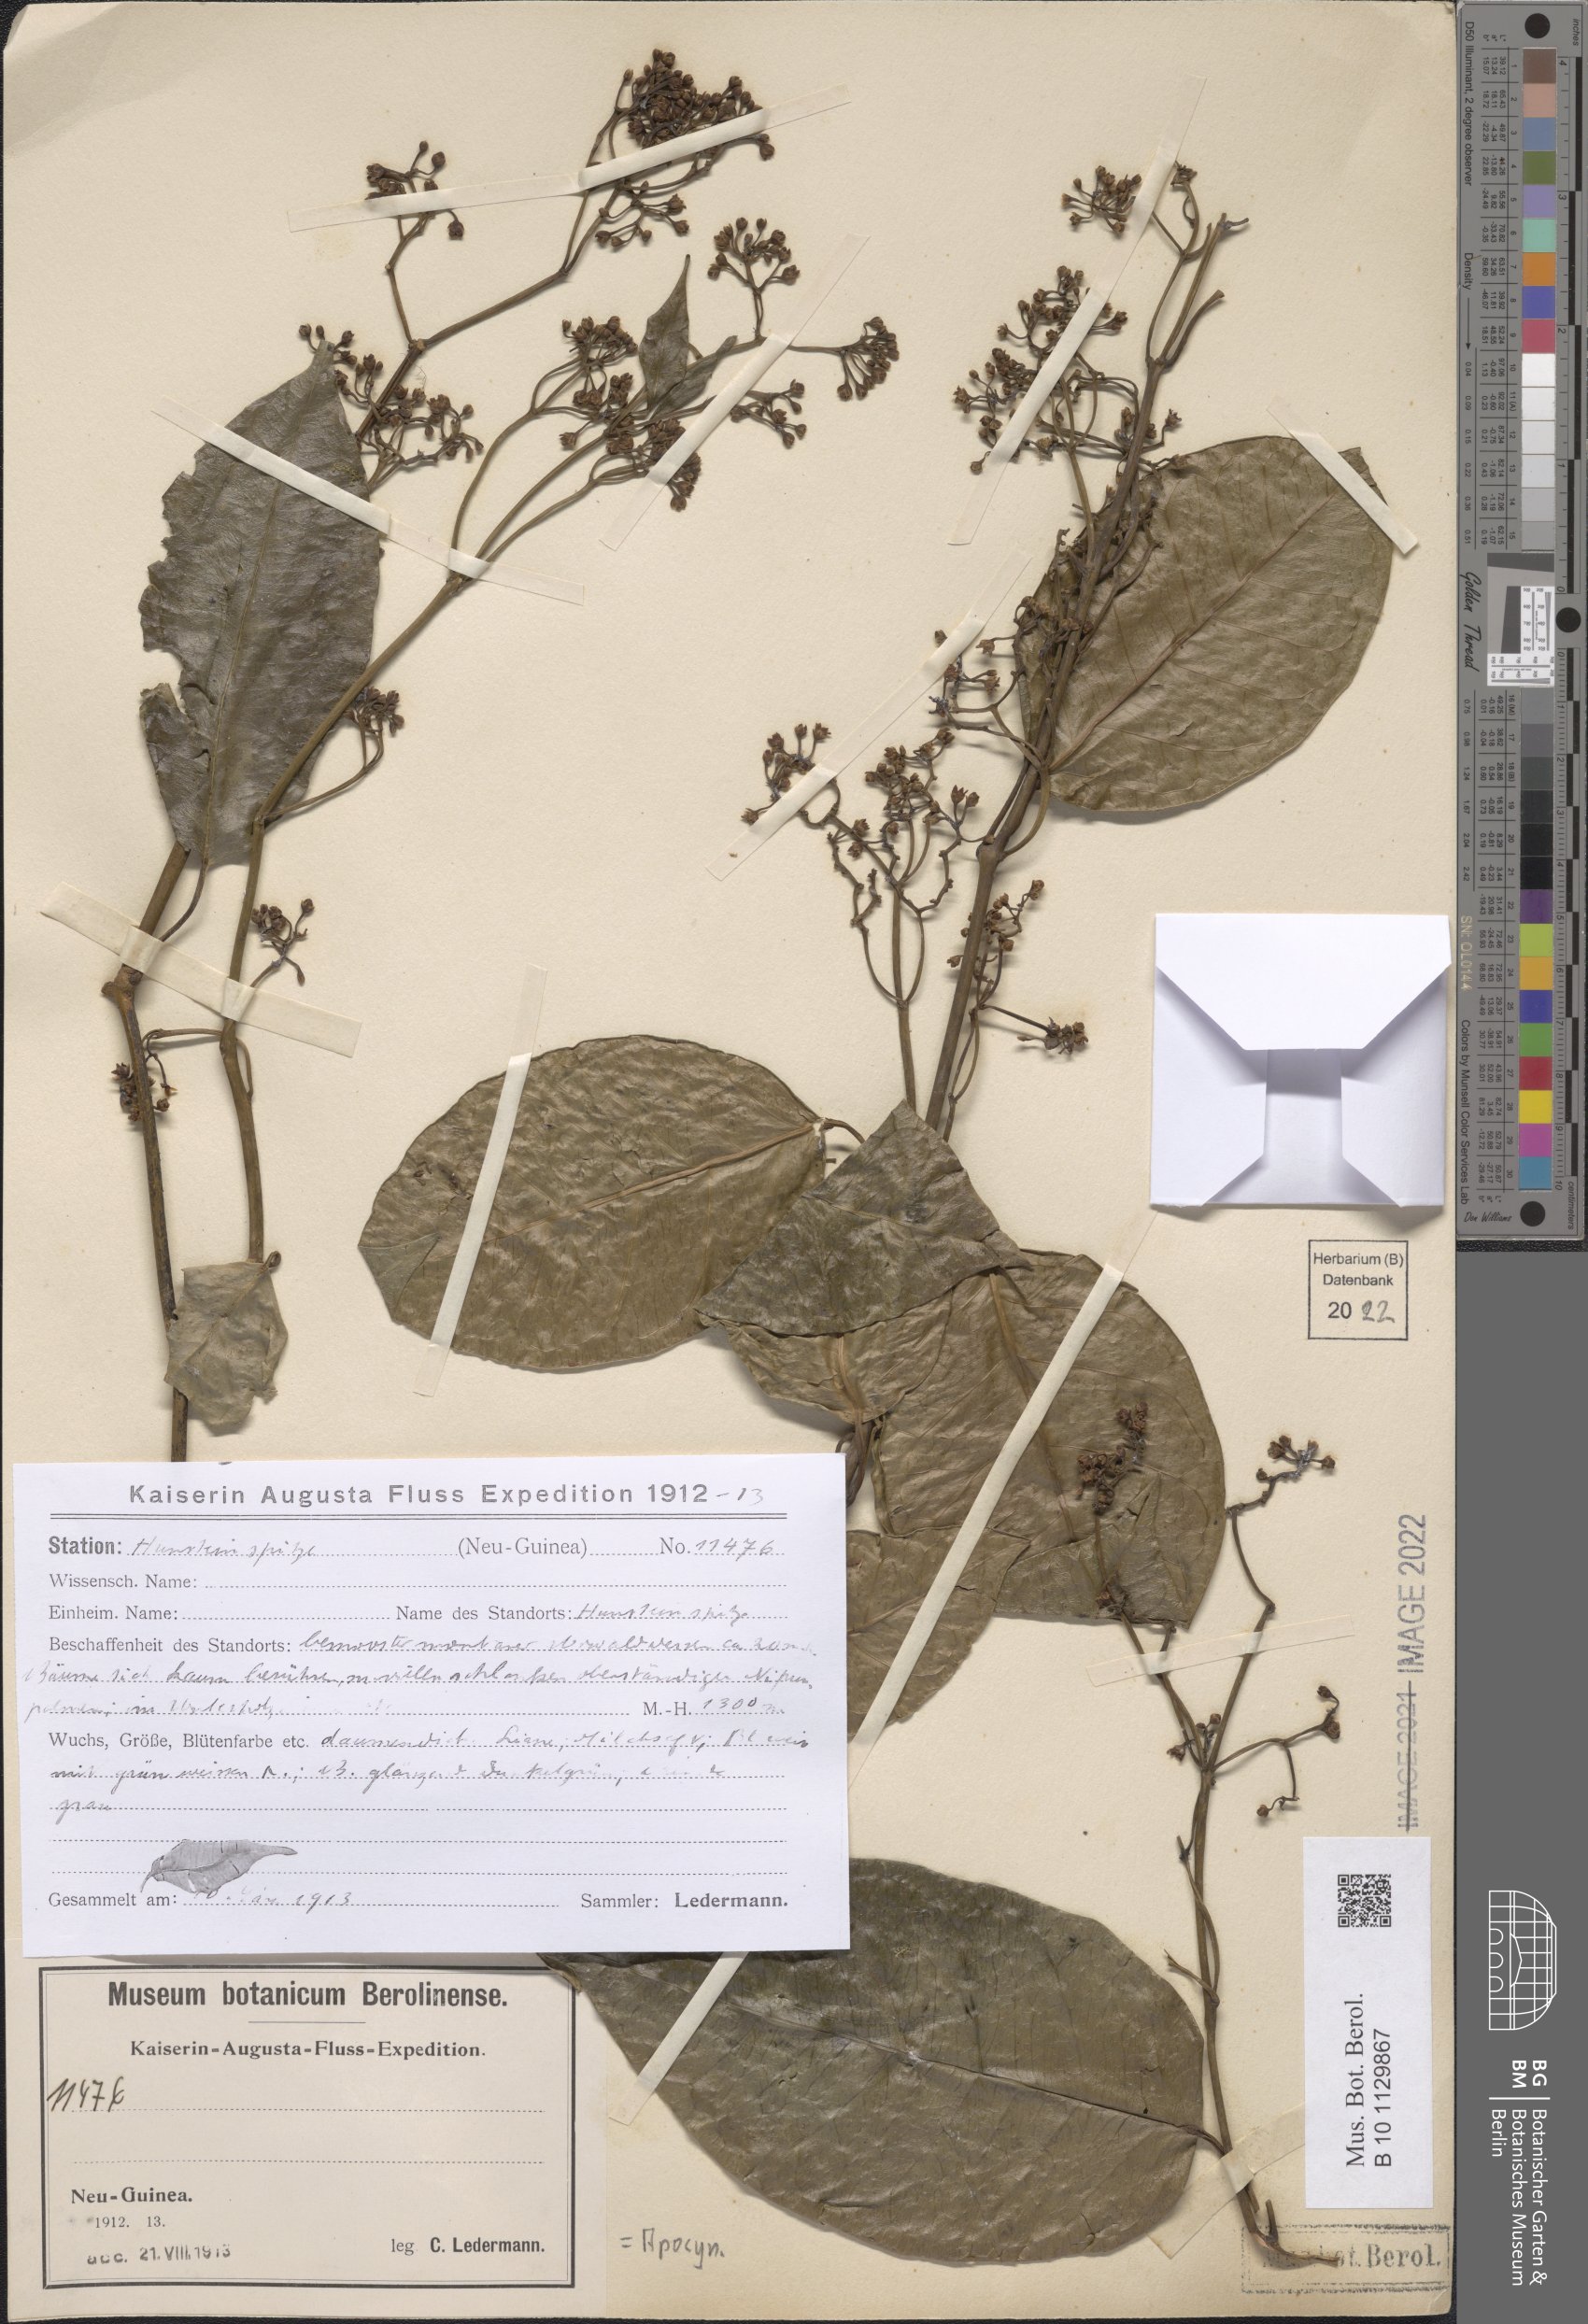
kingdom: Plantae
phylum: Tracheophyta
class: Magnoliopsida
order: Gentianales
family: Apocynaceae
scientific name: Apocynaceae
